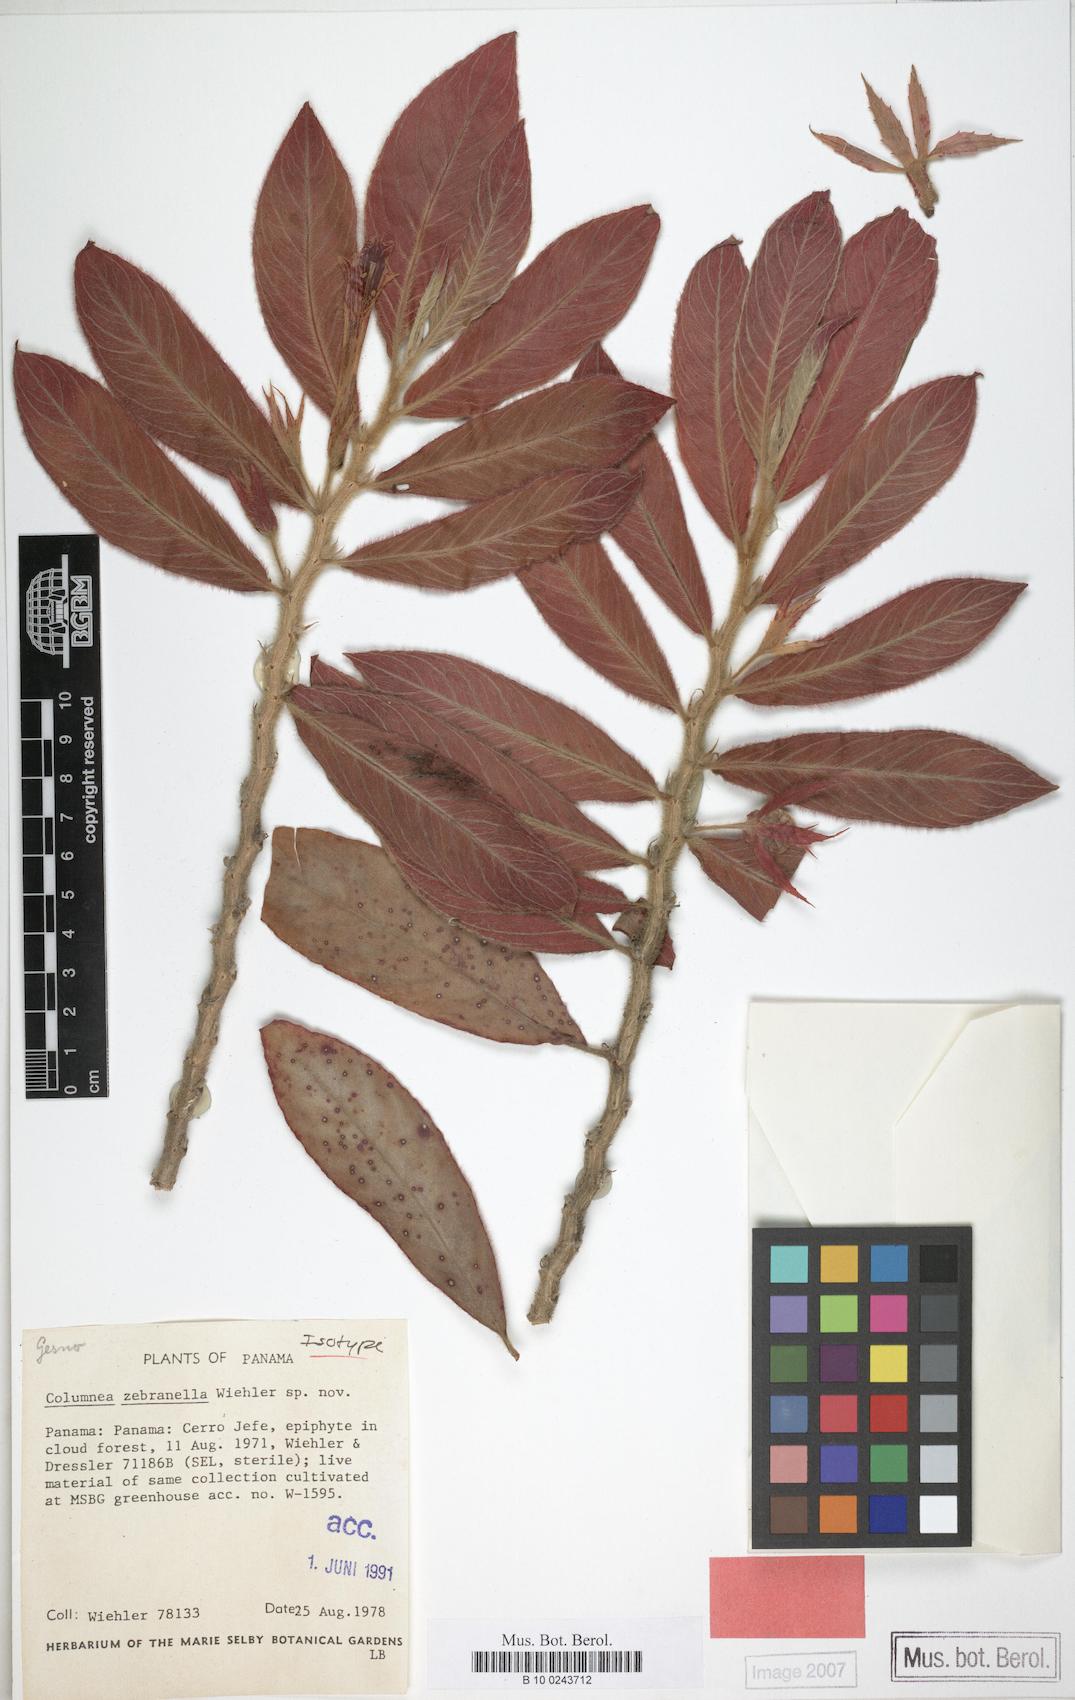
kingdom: Plantae
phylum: Tracheophyta
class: Magnoliopsida
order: Lamiales
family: Gesneriaceae
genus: Columnea
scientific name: Columnea zebranella
